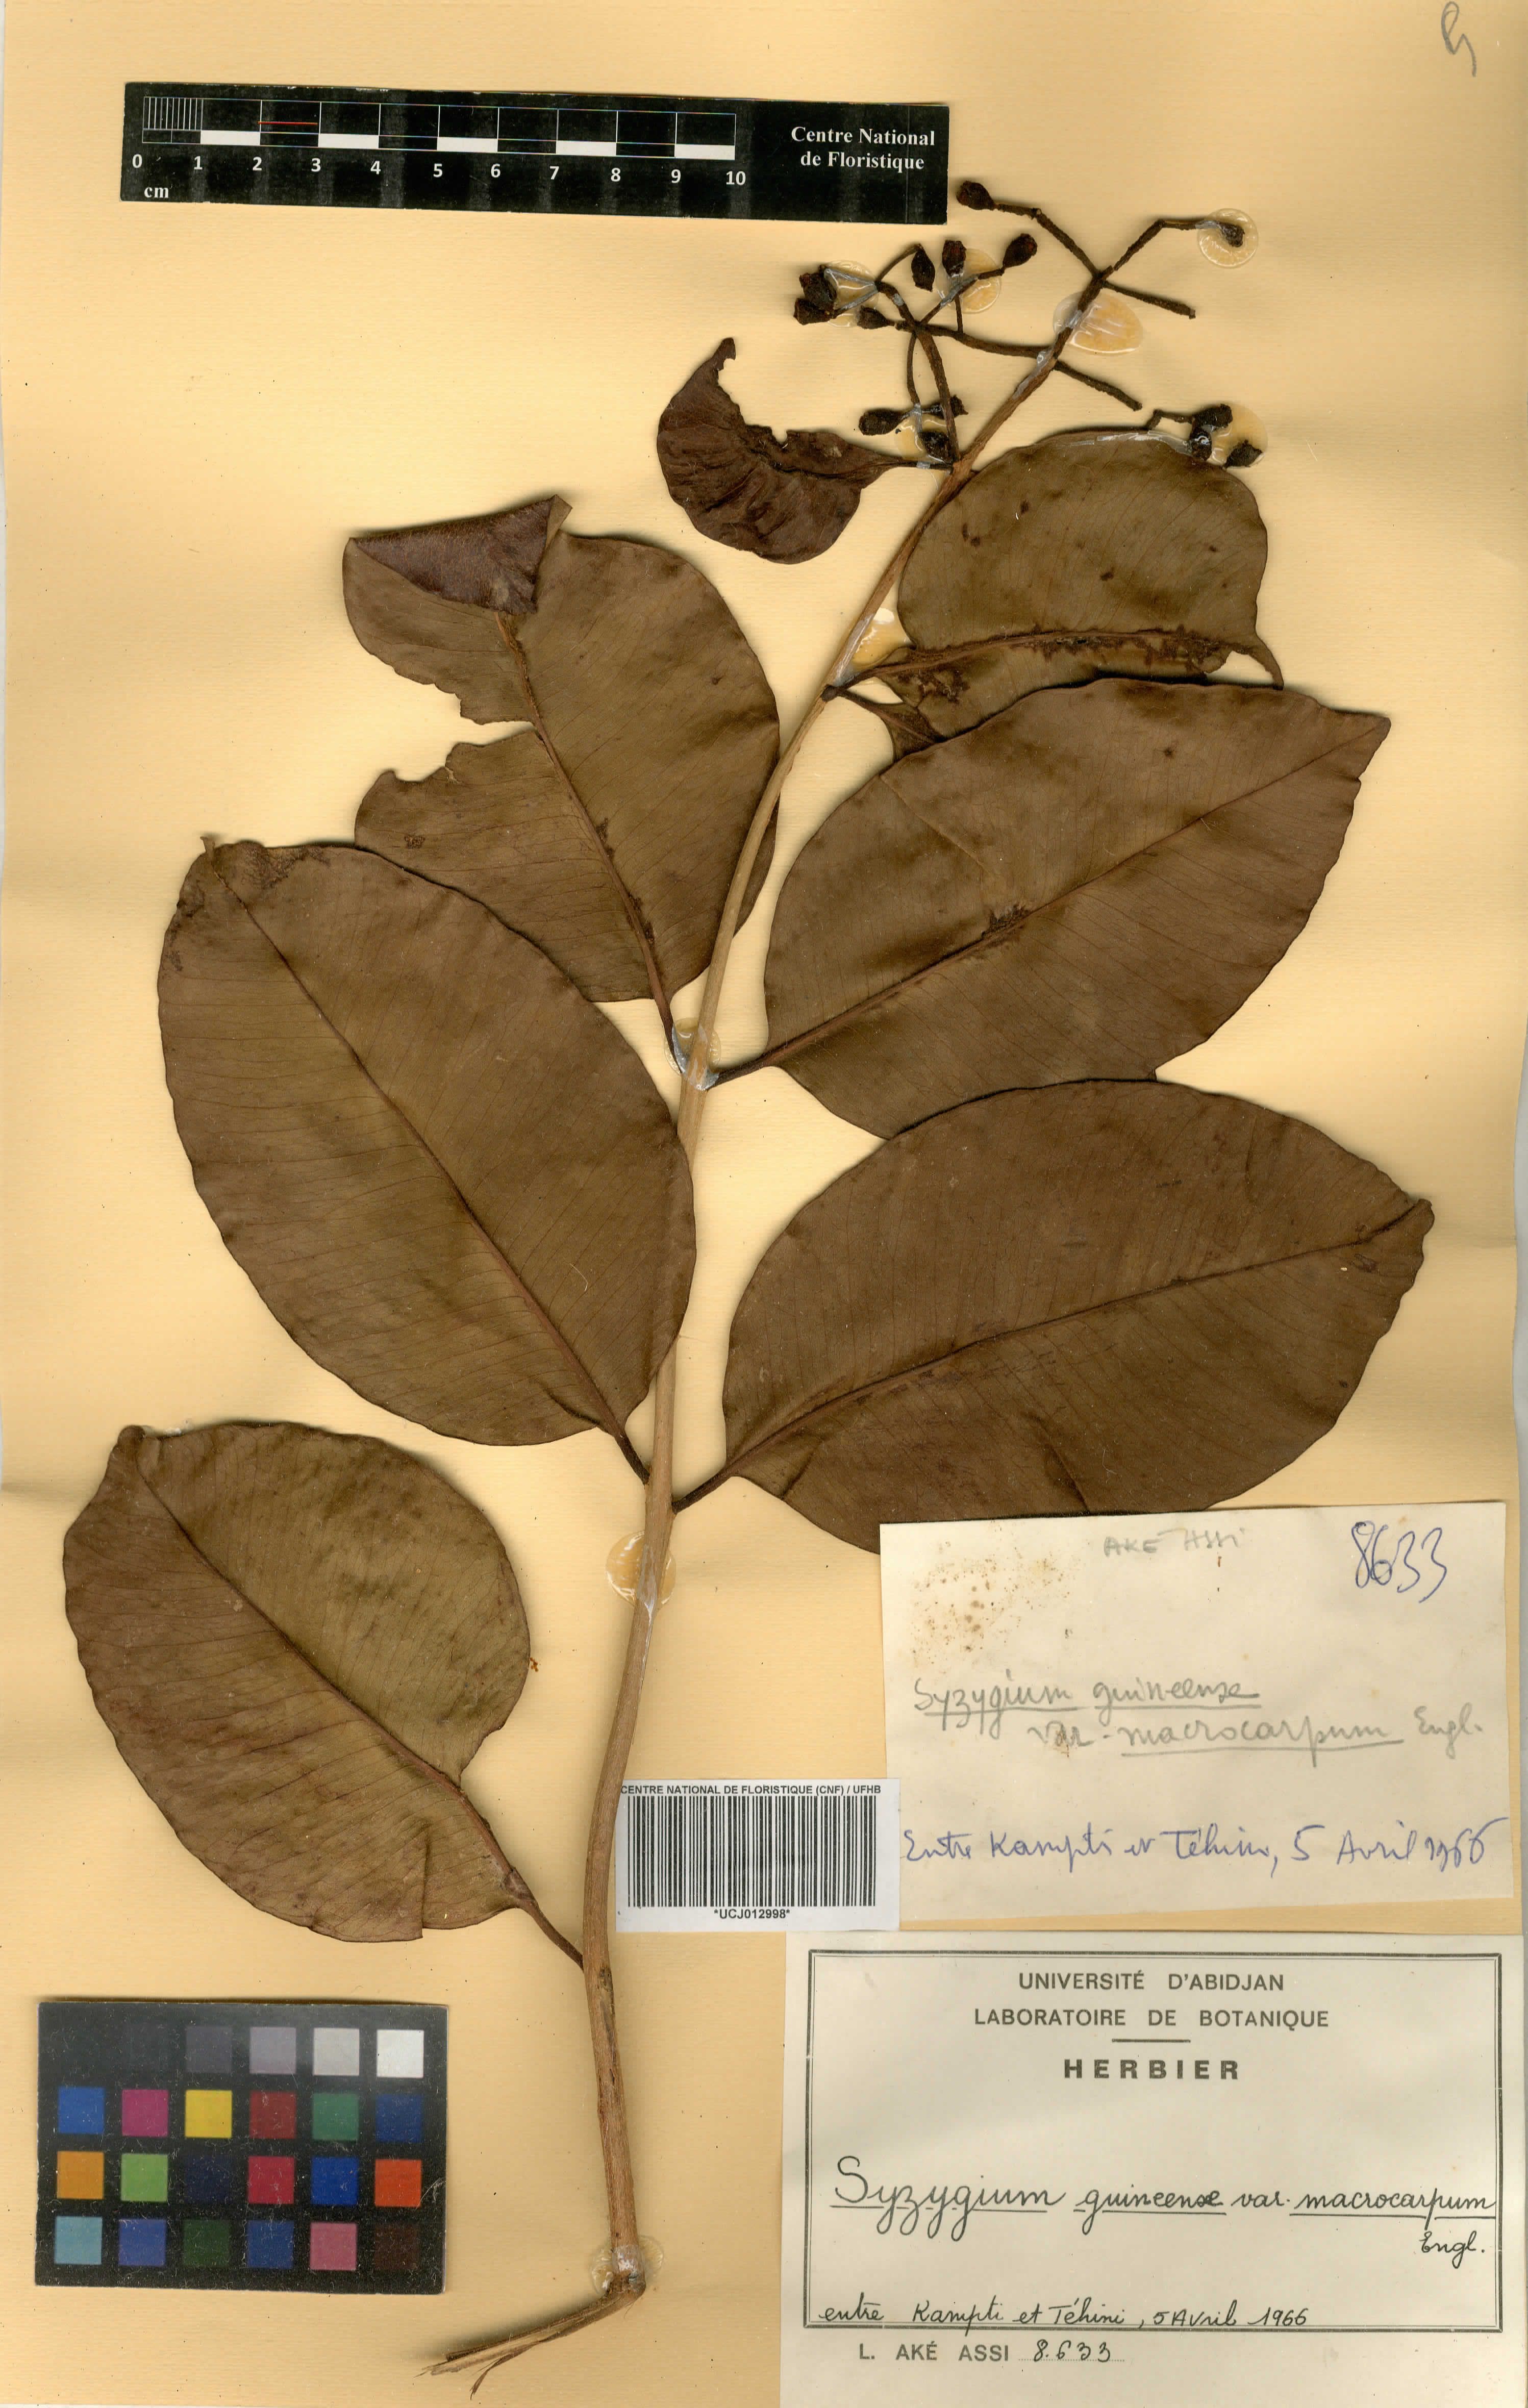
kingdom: Plantae
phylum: Tracheophyta
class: Magnoliopsida
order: Myrtales
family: Myrtaceae
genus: Syzygium
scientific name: Syzygium guineense
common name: Water-pear
